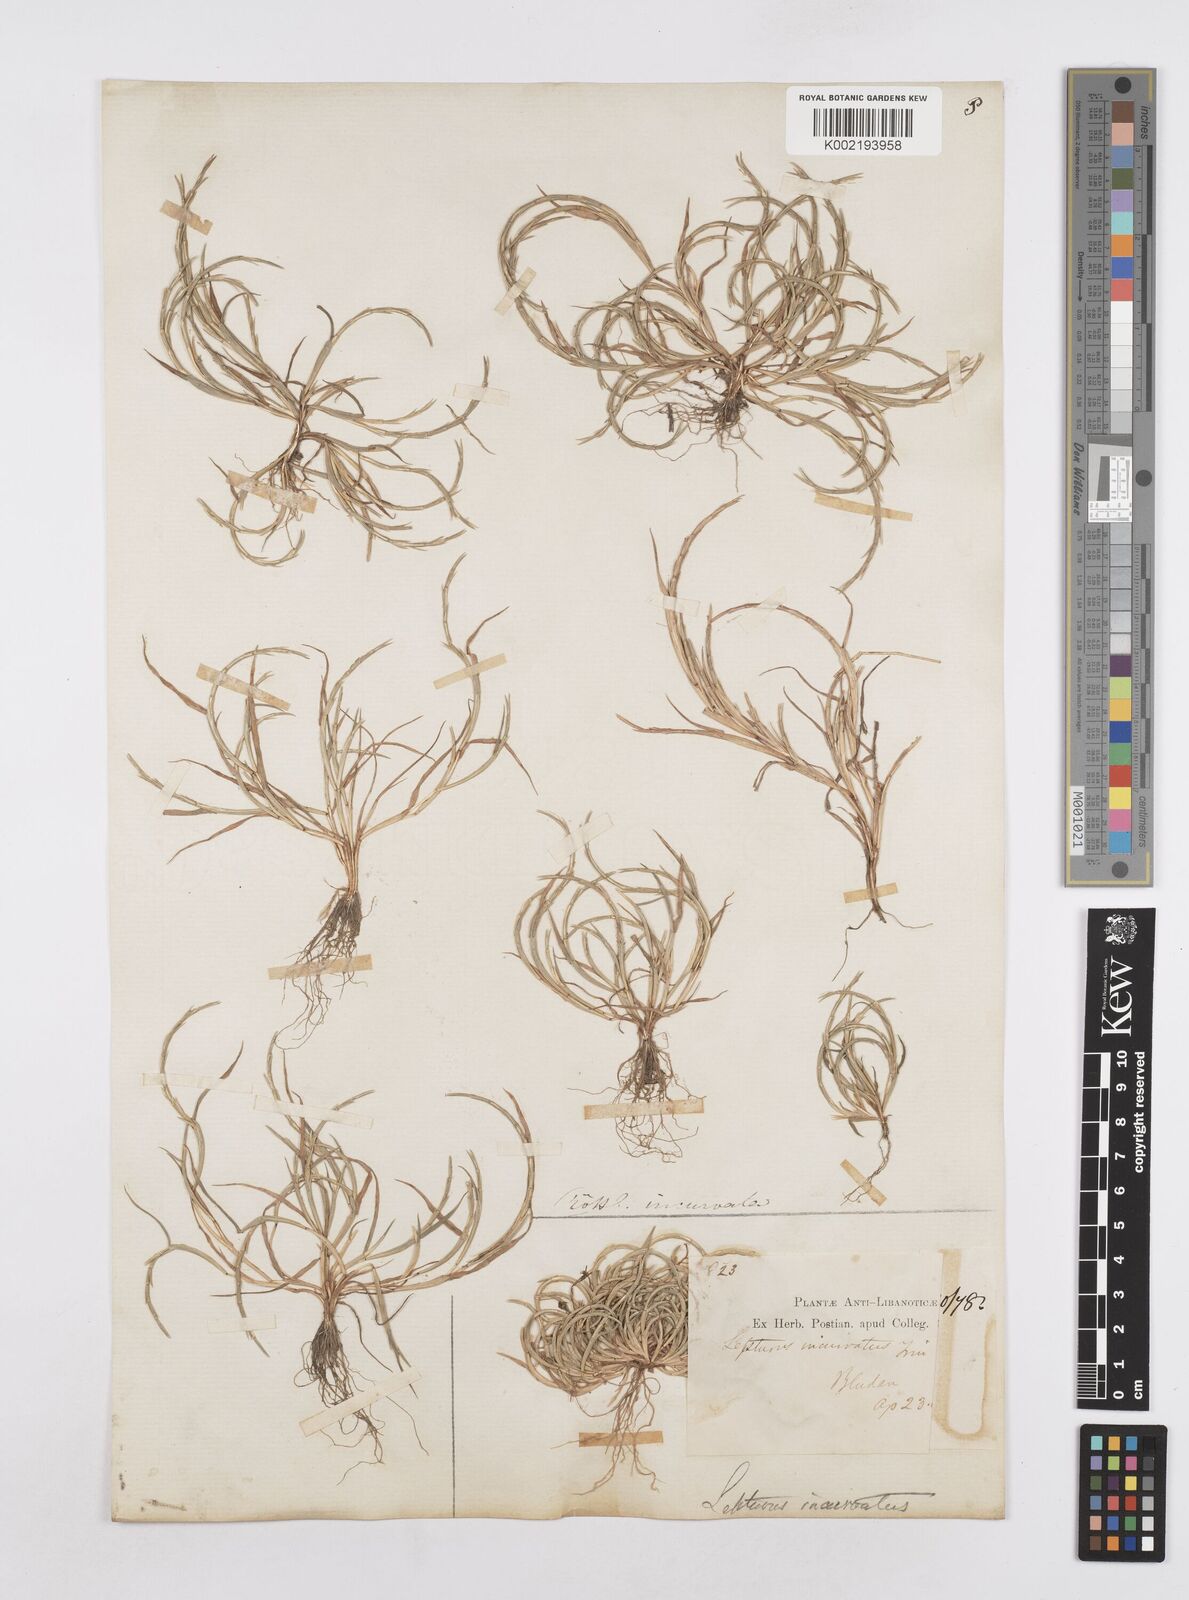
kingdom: Plantae
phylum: Tracheophyta
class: Liliopsida
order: Poales
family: Poaceae
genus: Parapholis
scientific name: Parapholis incurva
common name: Curved sicklegrass
